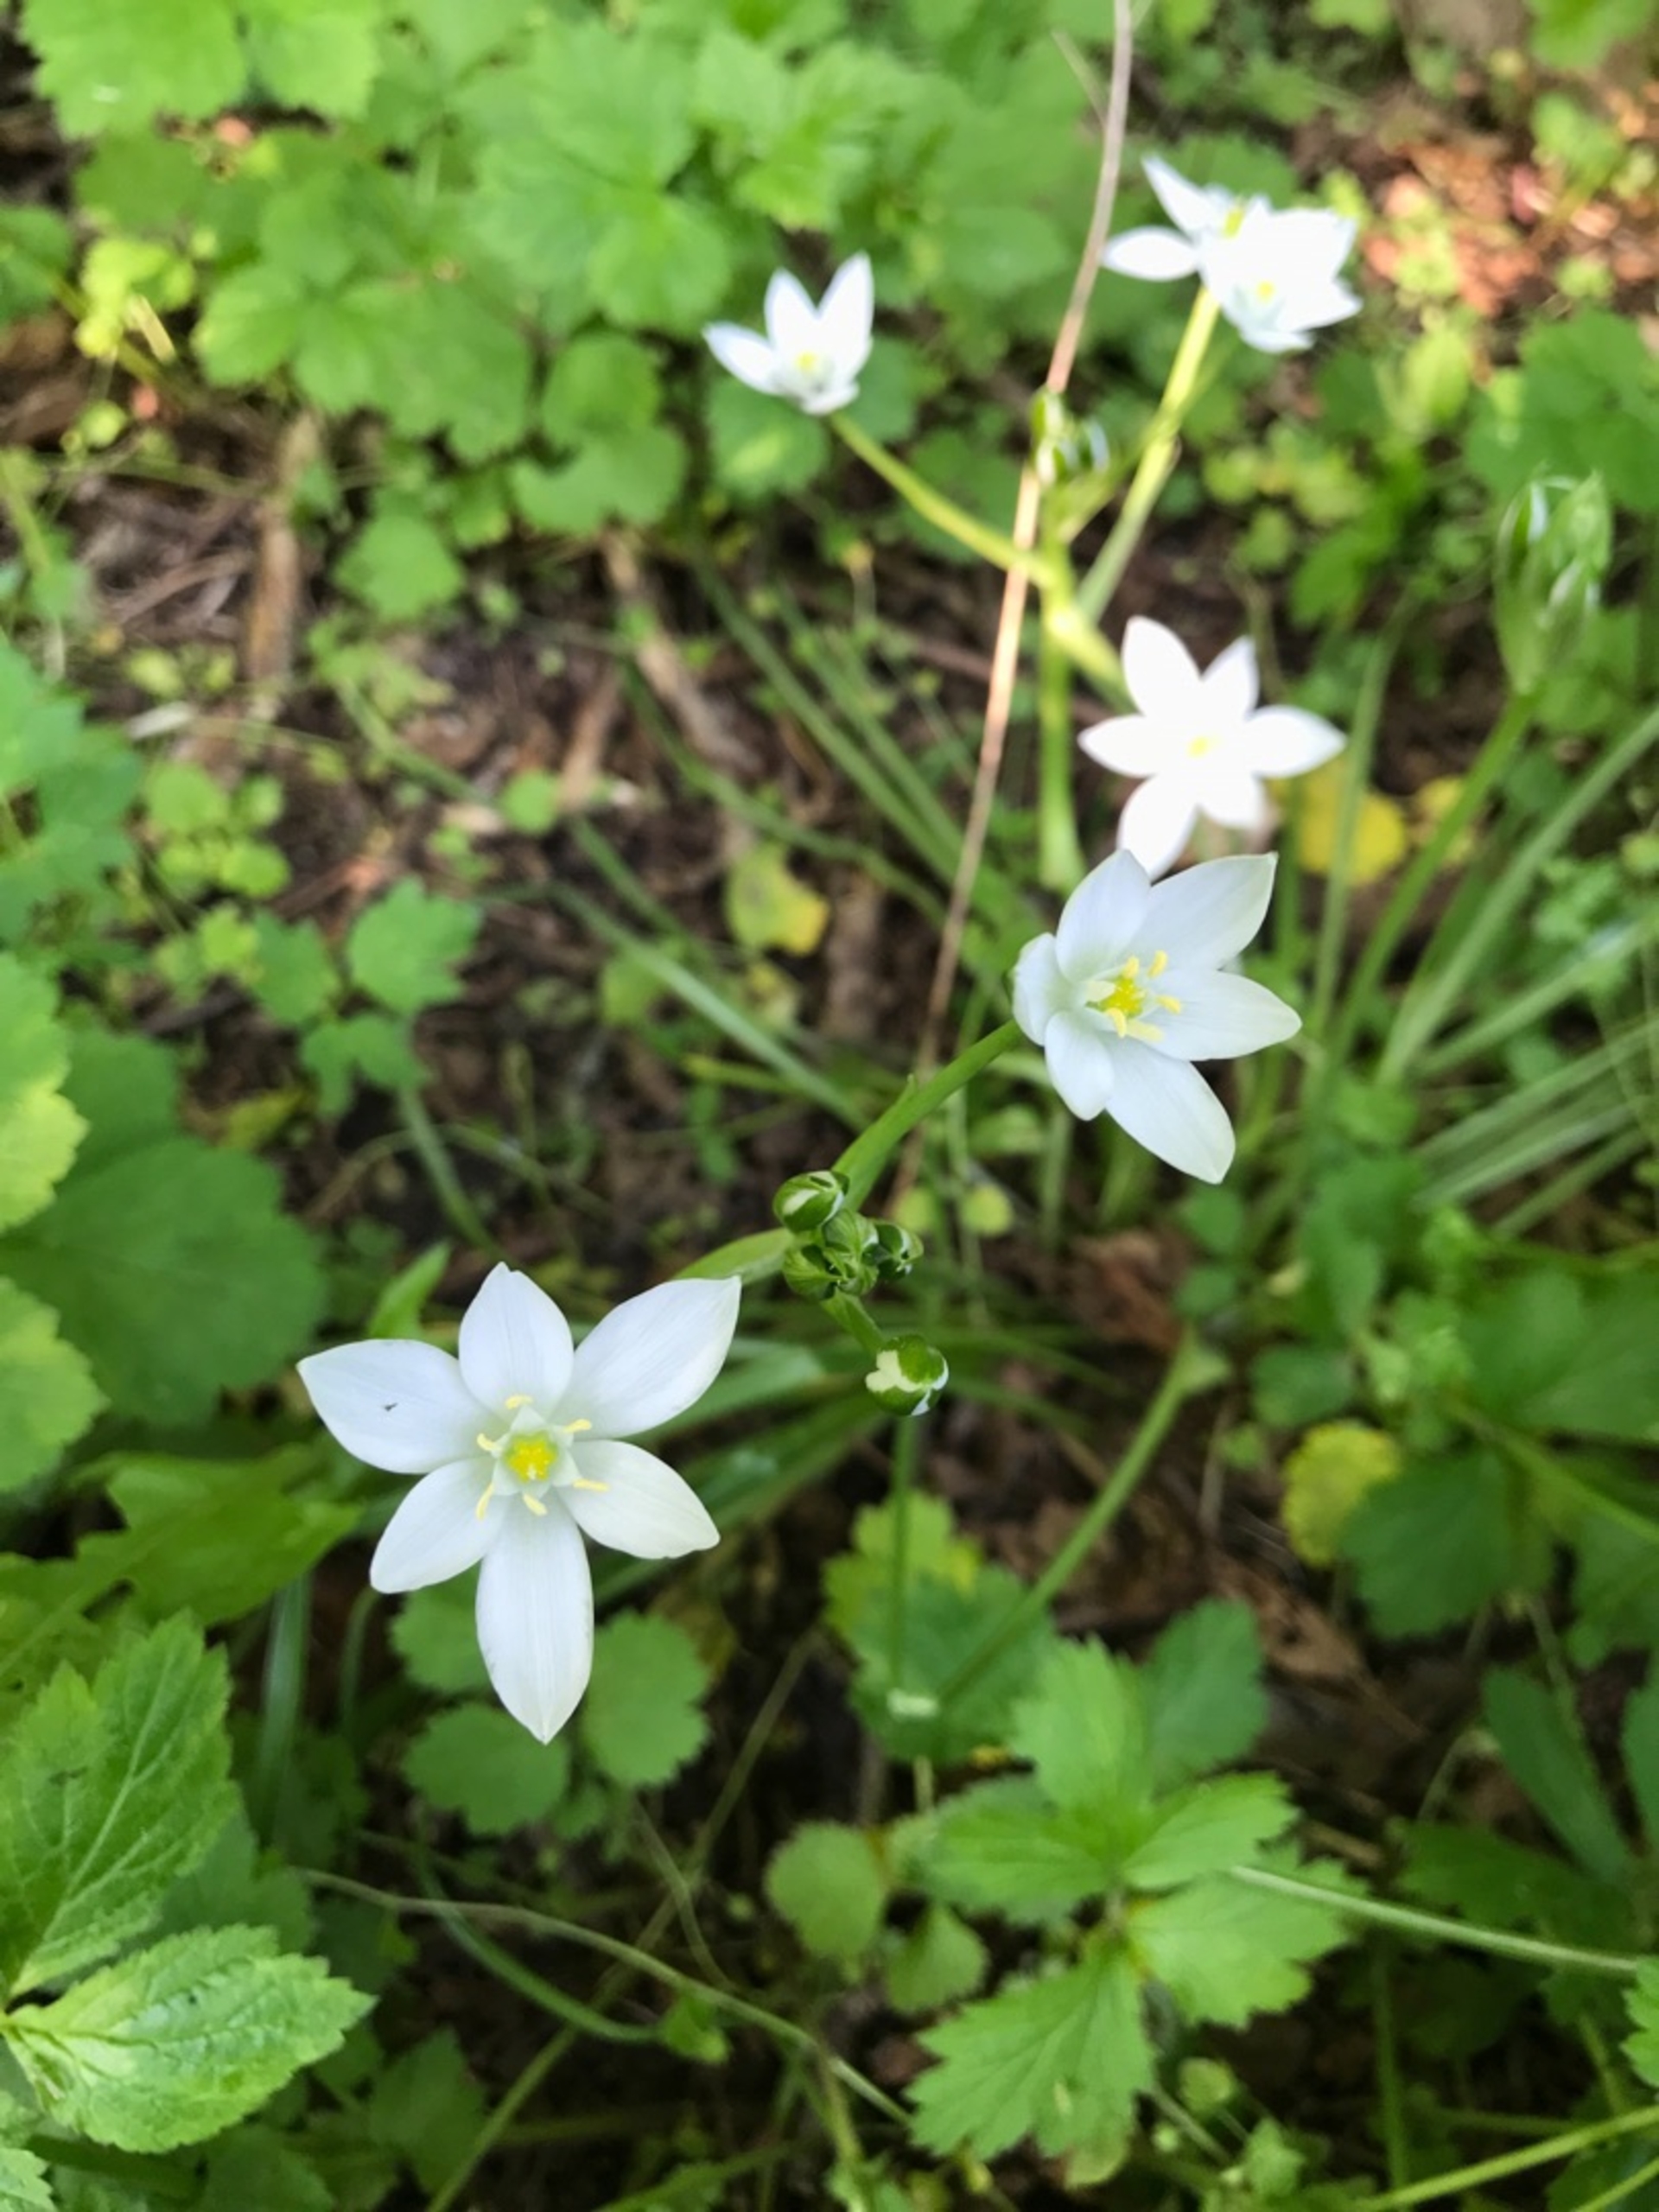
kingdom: Plantae
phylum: Tracheophyta
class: Liliopsida
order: Asparagales
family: Asparagaceae
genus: Ornithogalum
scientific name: Ornithogalum umbellatum
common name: Kost-fuglemælk
